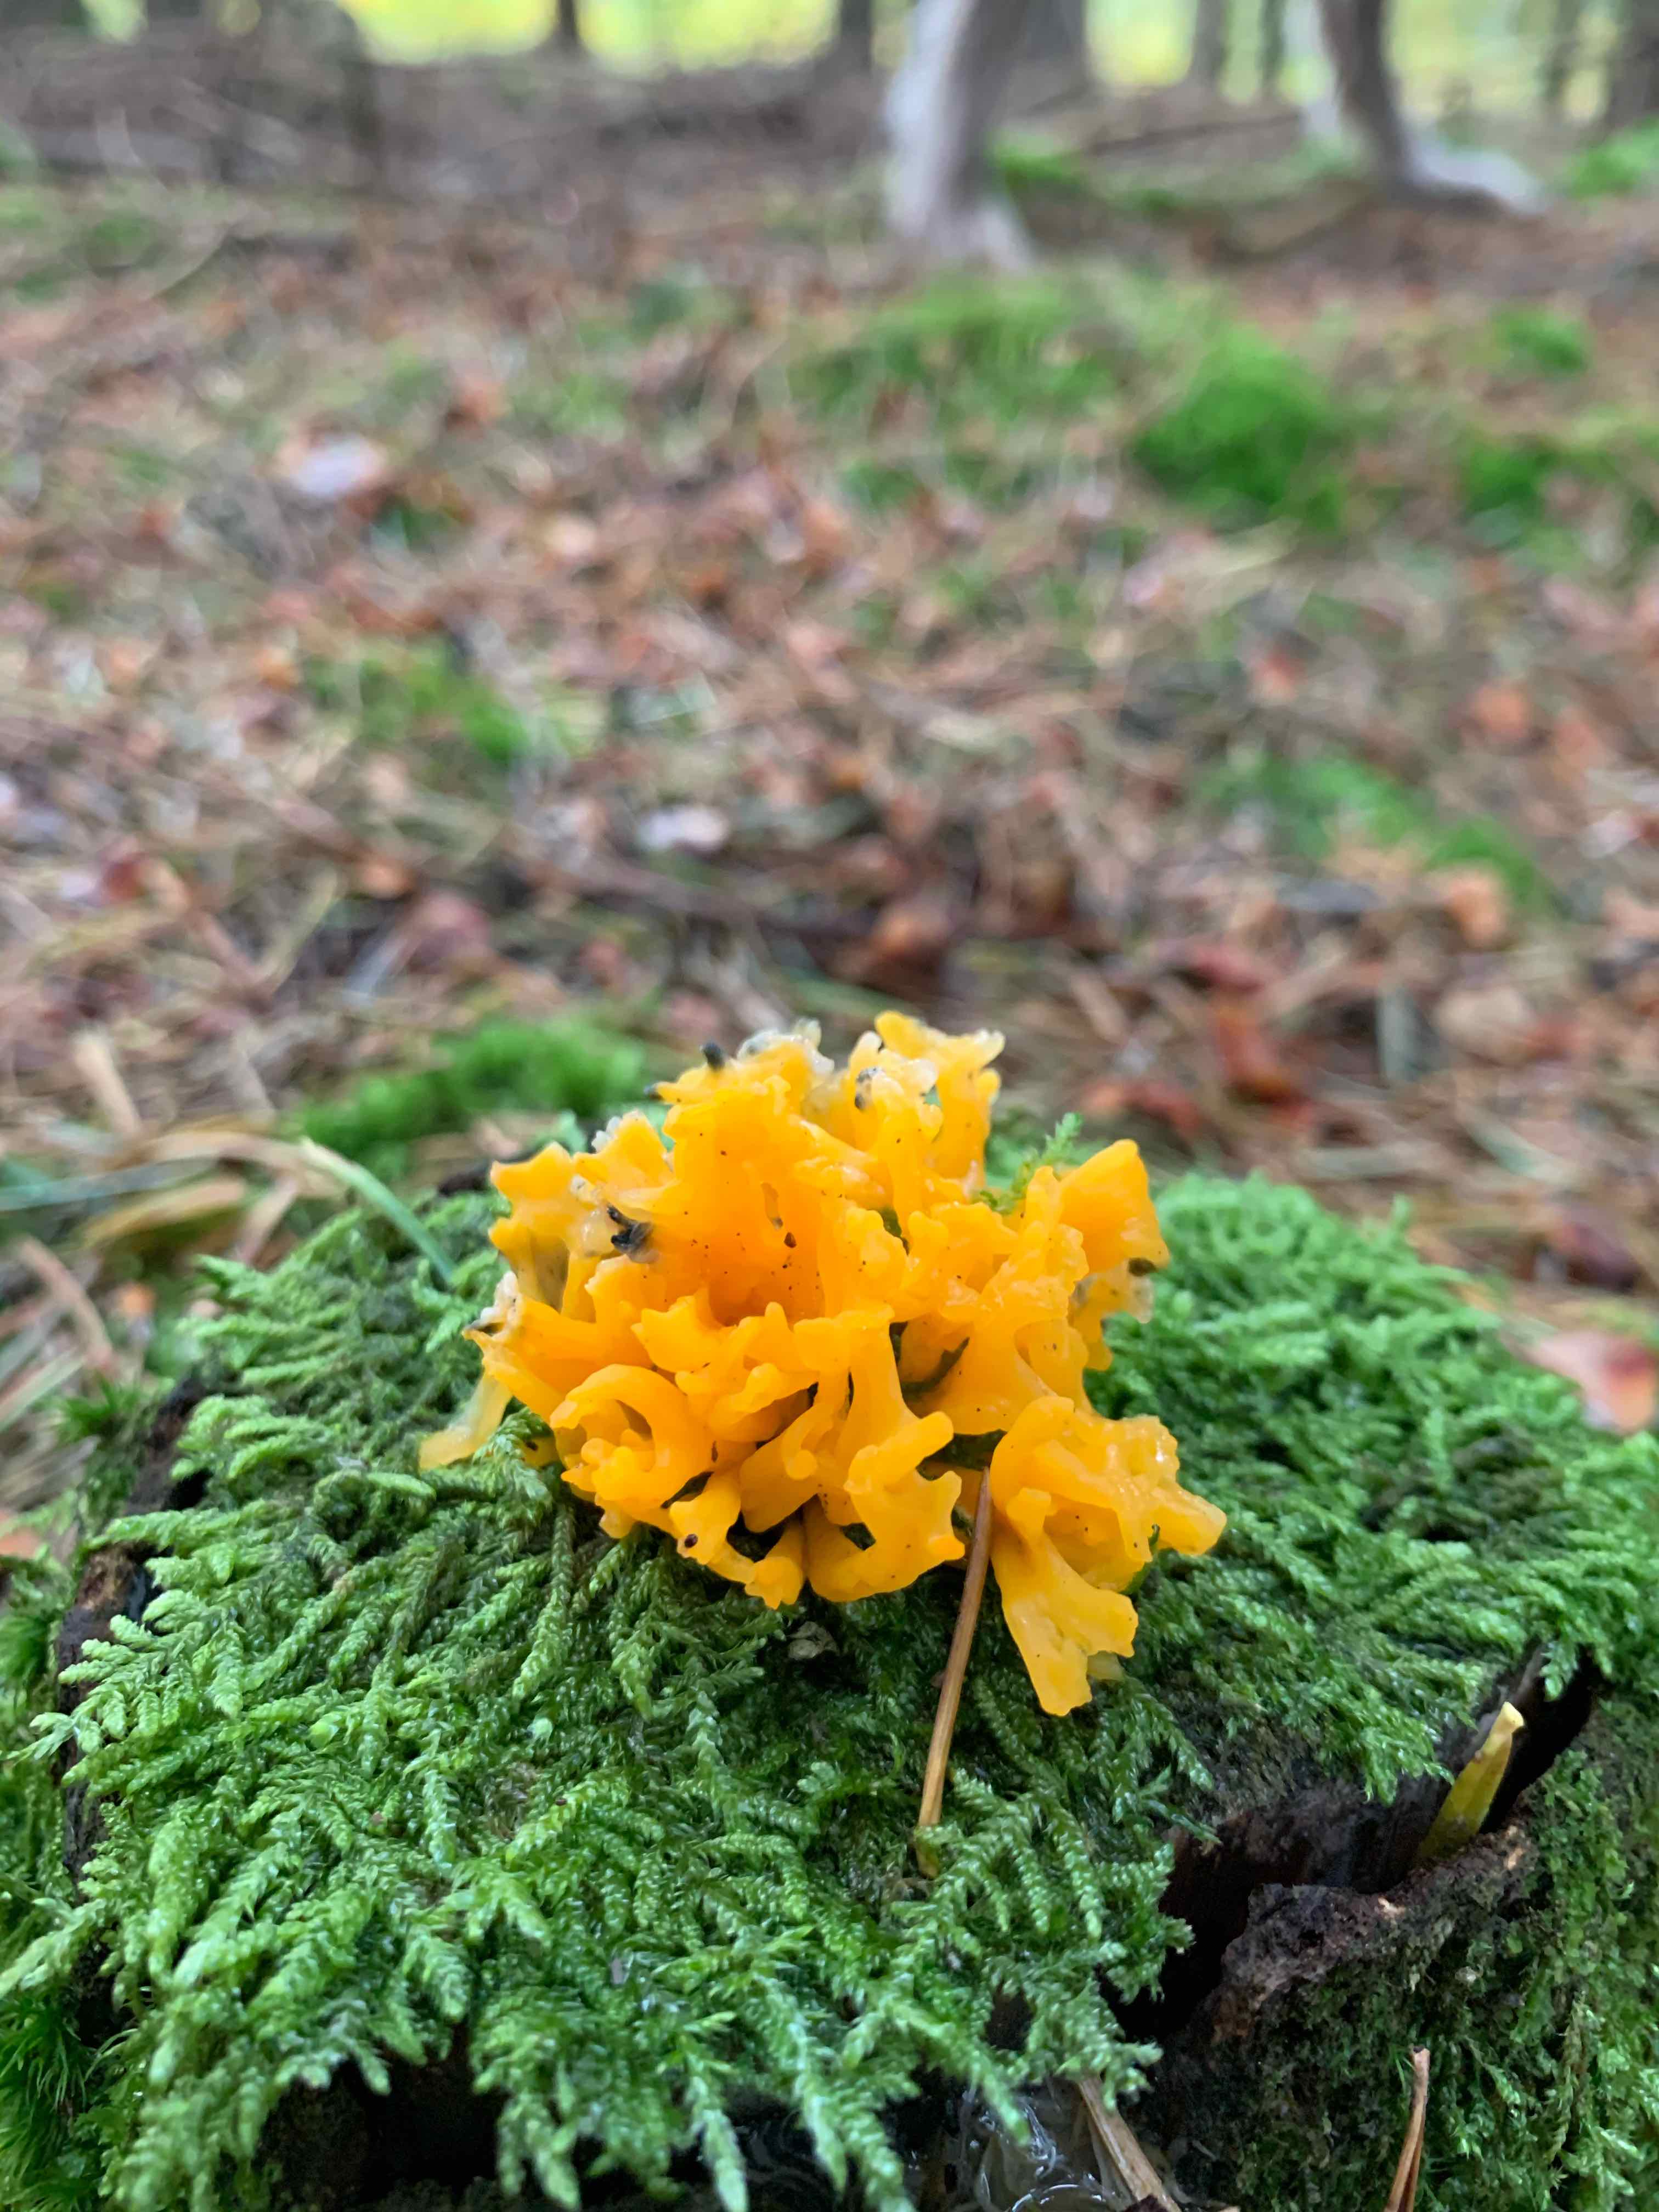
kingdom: Fungi
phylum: Basidiomycota
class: Dacrymycetes
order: Dacrymycetales
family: Dacrymycetaceae
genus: Calocera
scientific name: Calocera viscosa
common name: almindelig guldgaffel
